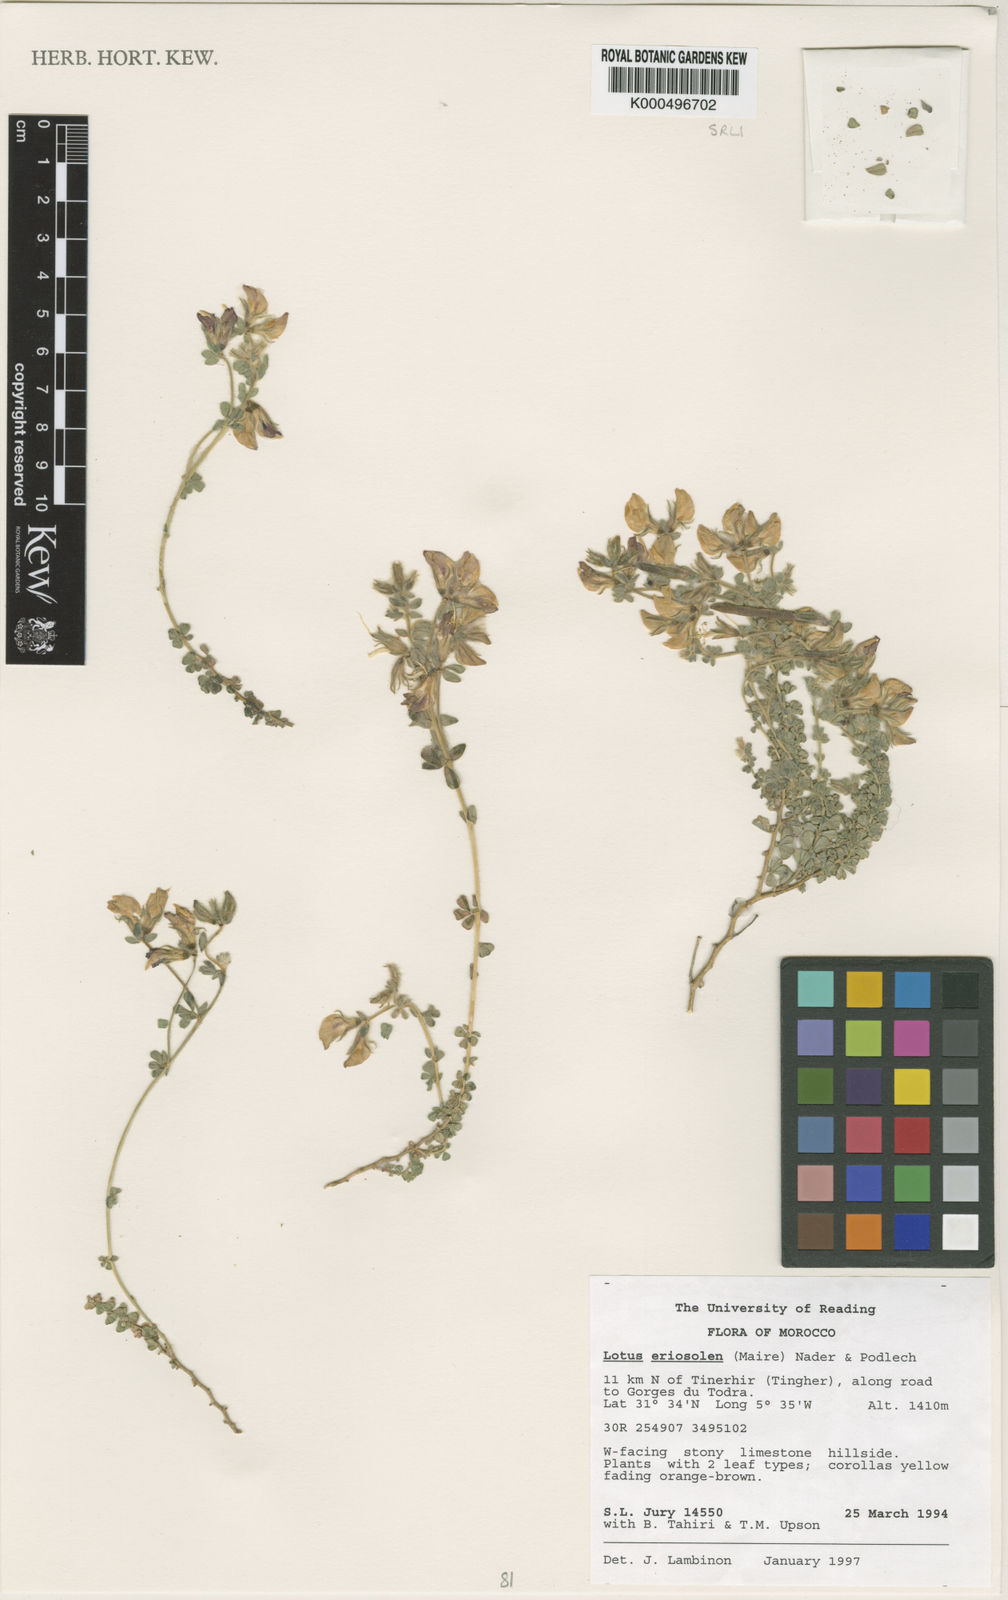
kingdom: Plantae
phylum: Tracheophyta
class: Magnoliopsida
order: Fabales
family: Fabaceae
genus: Lotus
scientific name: Lotus villicarpus
